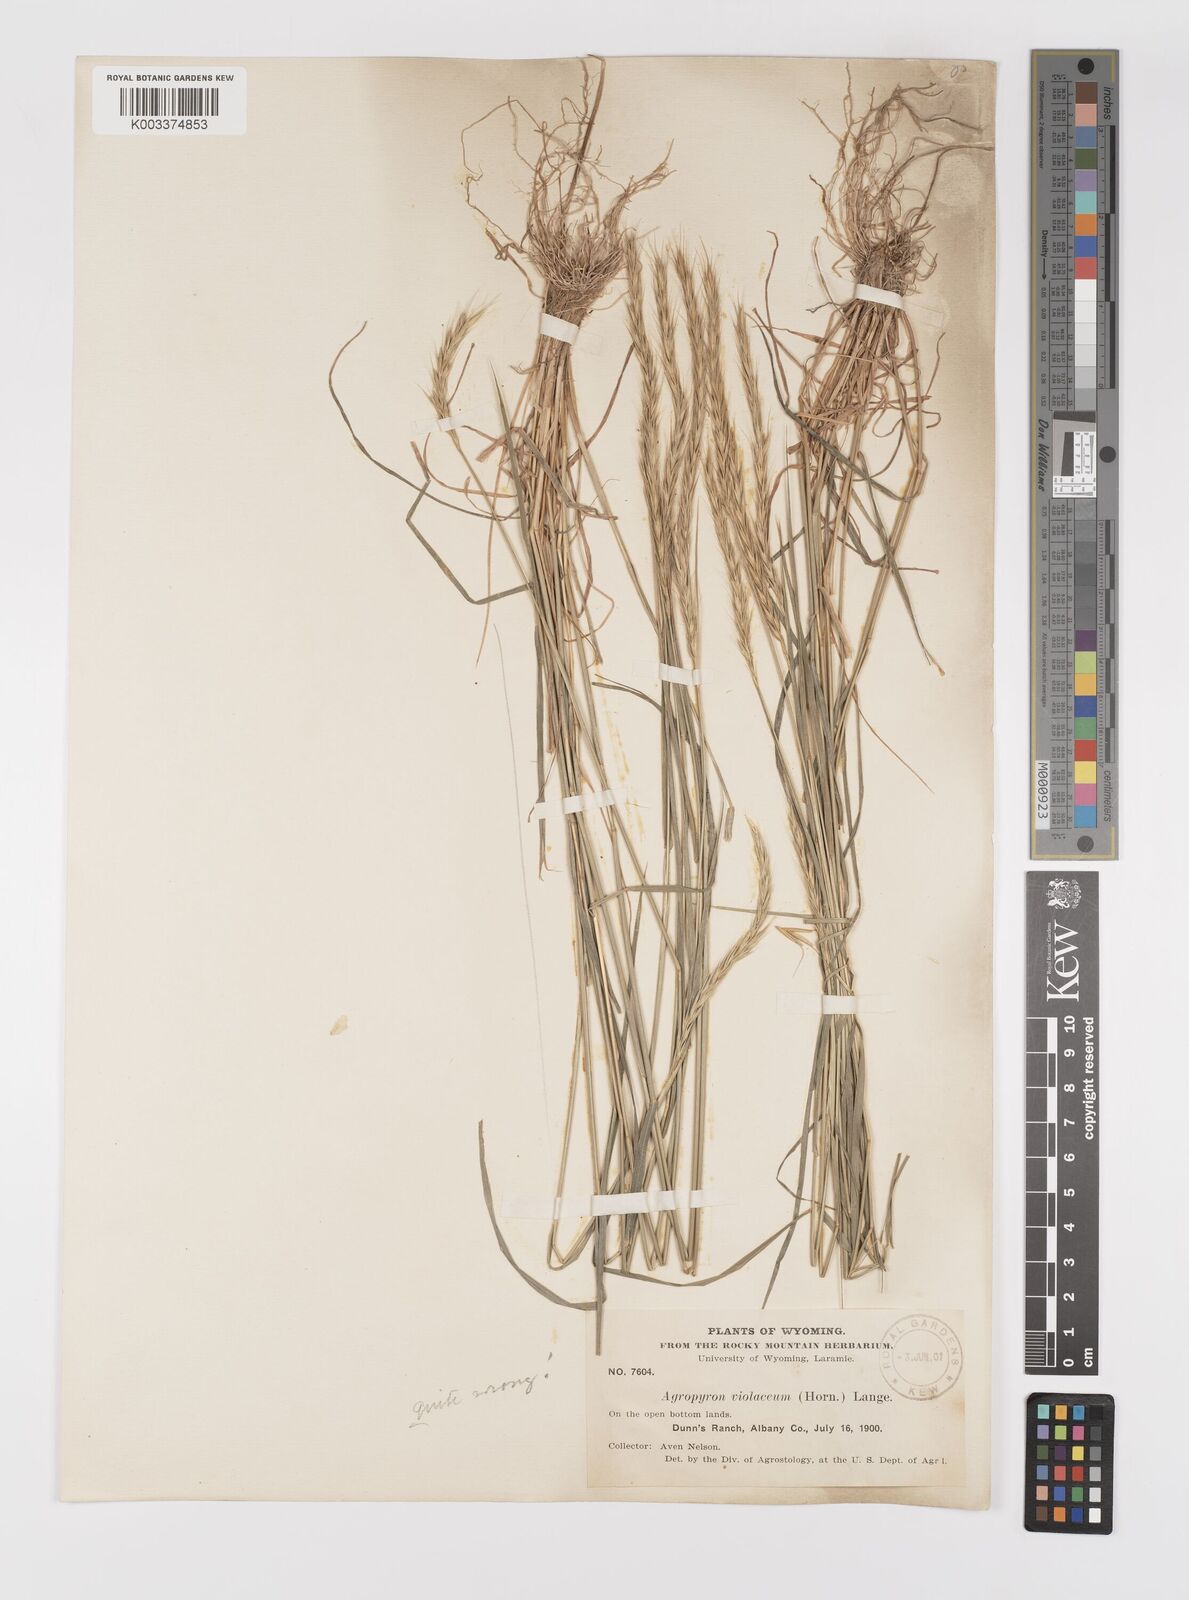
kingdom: Plantae
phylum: Tracheophyta
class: Liliopsida
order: Poales
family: Poaceae
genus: Elymus
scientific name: Elymus violaceus
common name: Arctic wheatgrass
